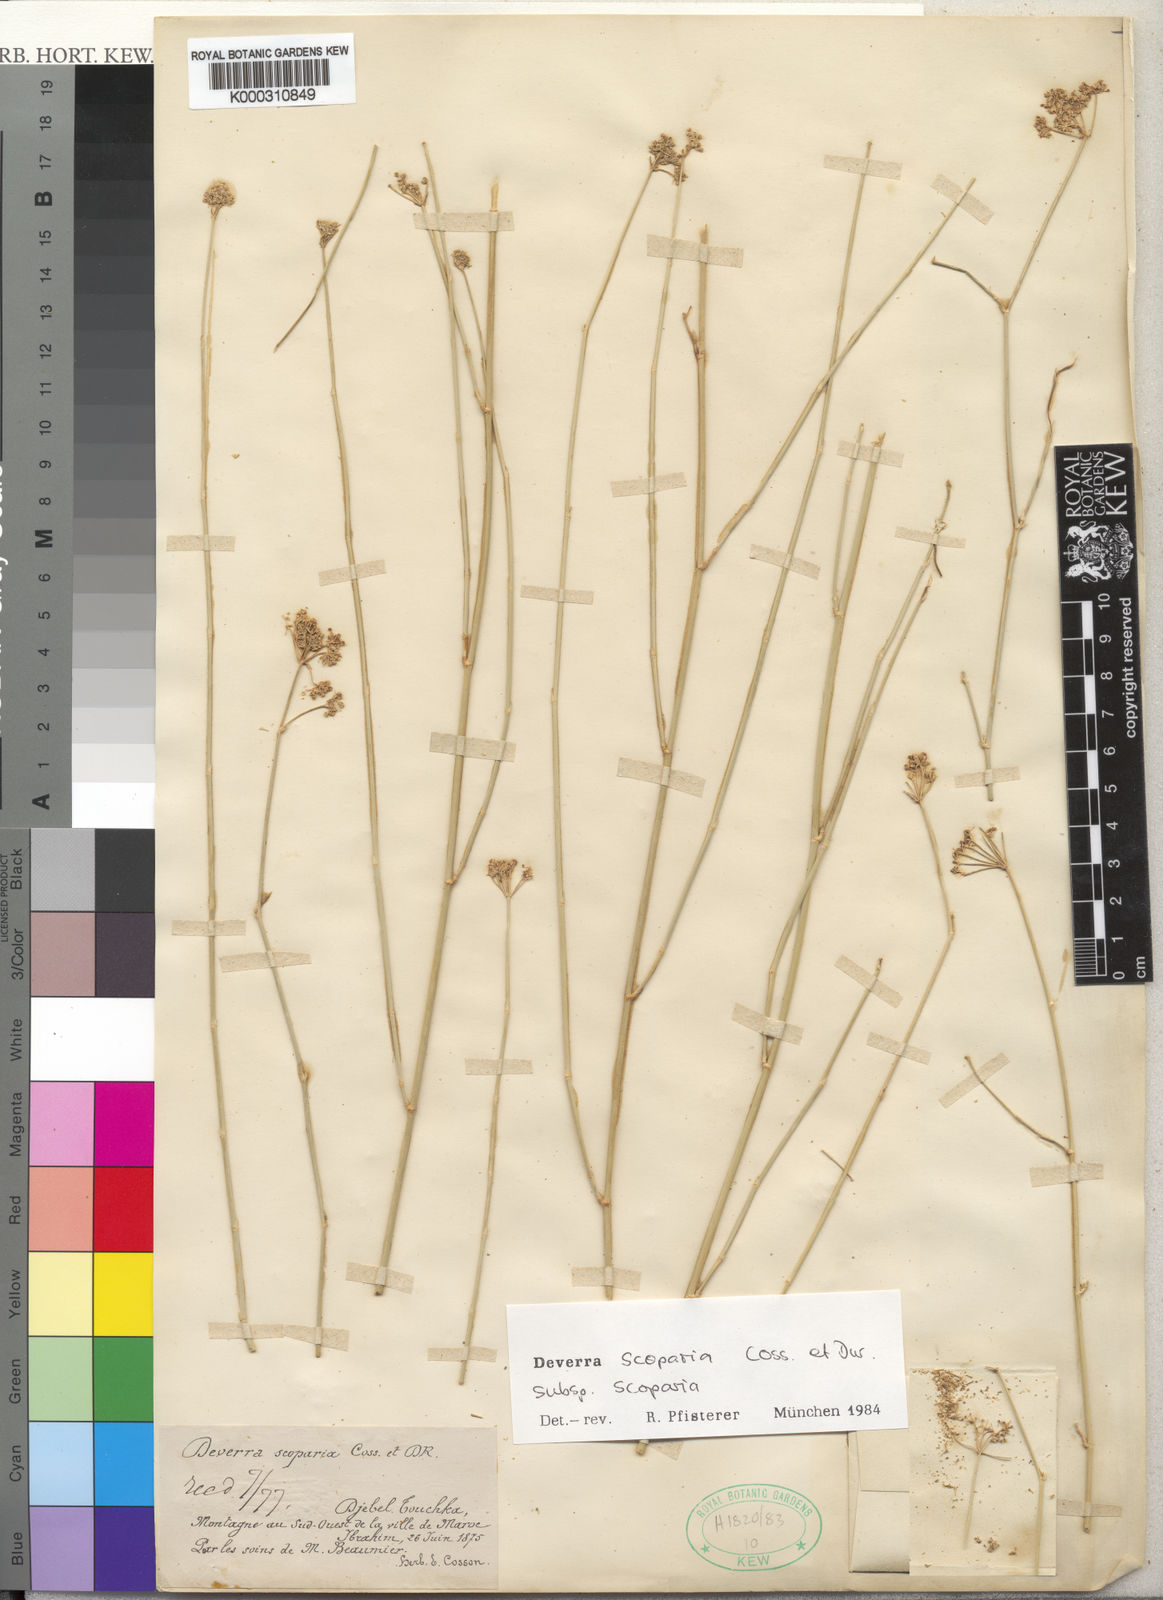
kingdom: Plantae
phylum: Tracheophyta
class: Magnoliopsida
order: Apiales
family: Apiaceae
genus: Deverra
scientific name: Deverra scoparia
